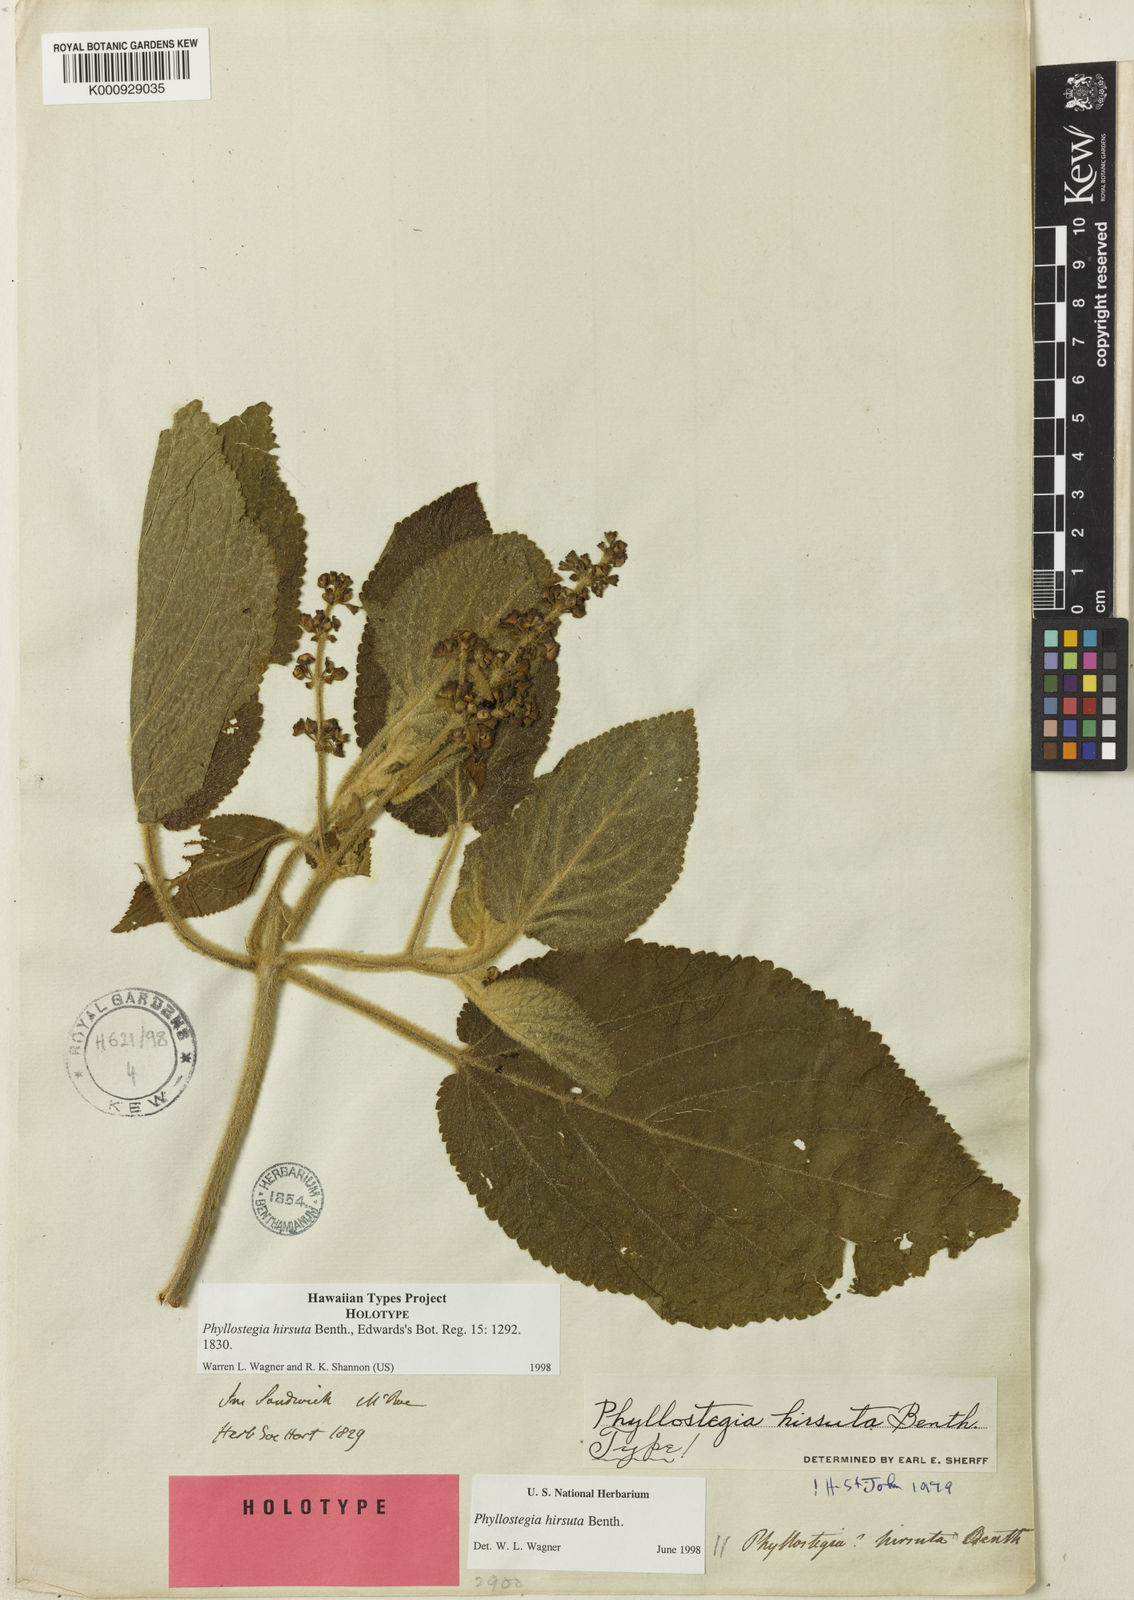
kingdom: Plantae
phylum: Tracheophyta
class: Magnoliopsida
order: Lamiales
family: Lamiaceae
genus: Phyllostegia
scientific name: Phyllostegia hirsuta
